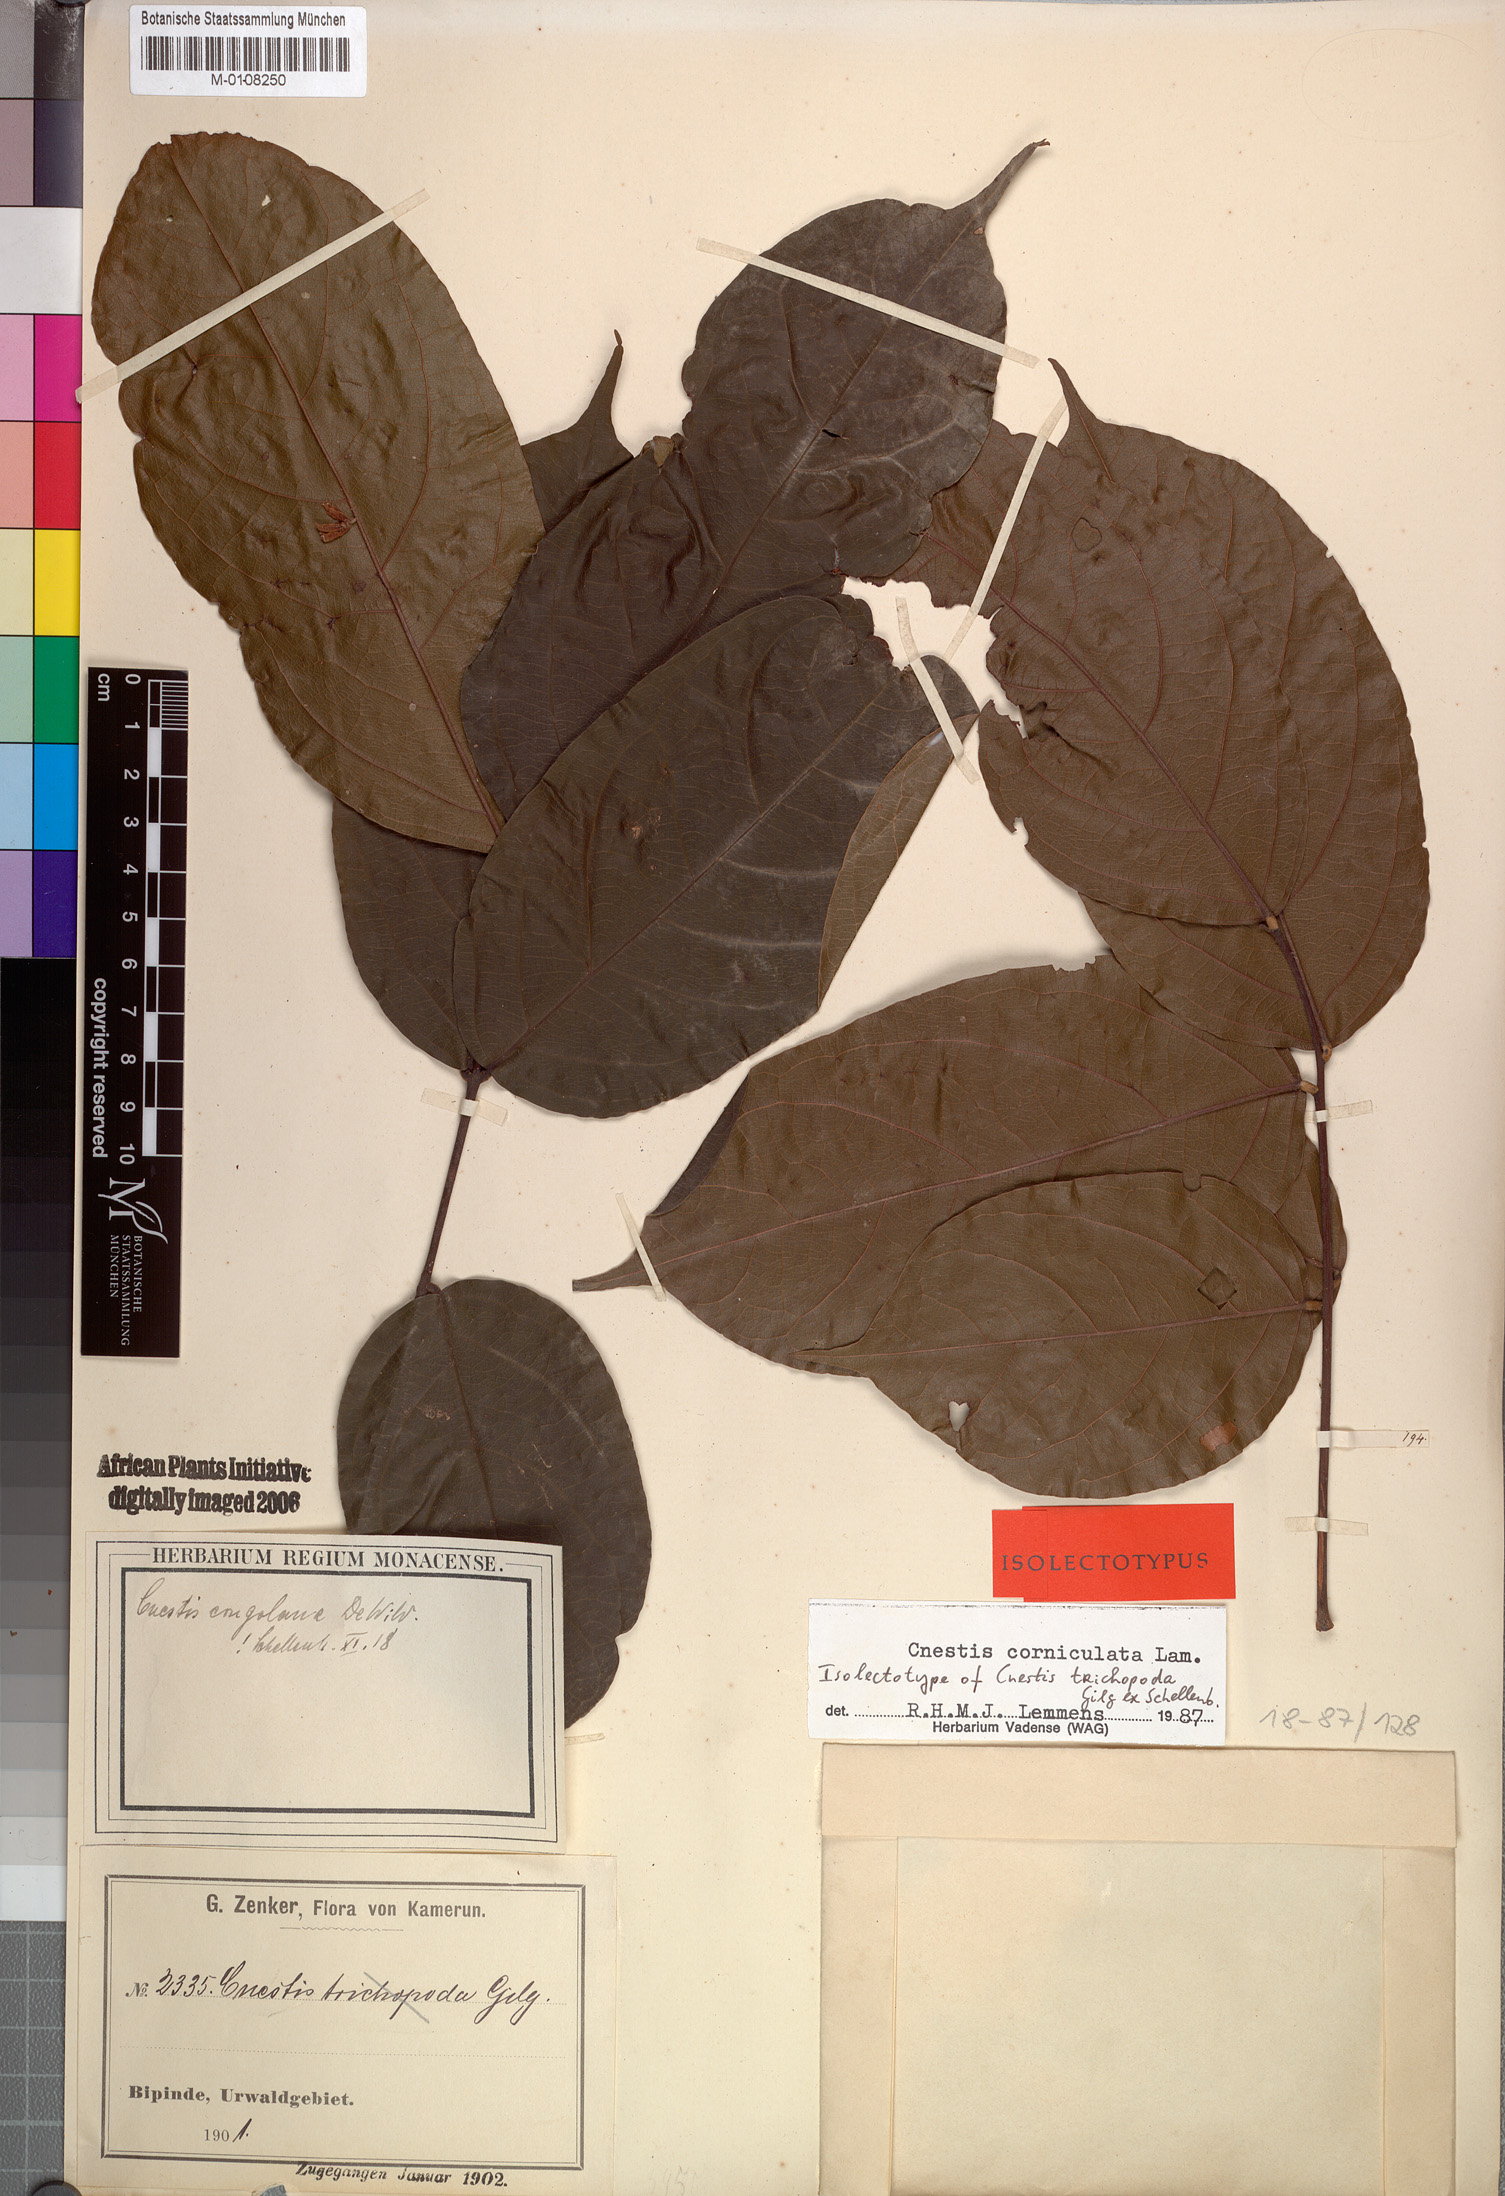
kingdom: Plantae
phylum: Tracheophyta
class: Magnoliopsida
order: Oxalidales
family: Connaraceae
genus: Cnestis
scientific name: Cnestis corniculata
